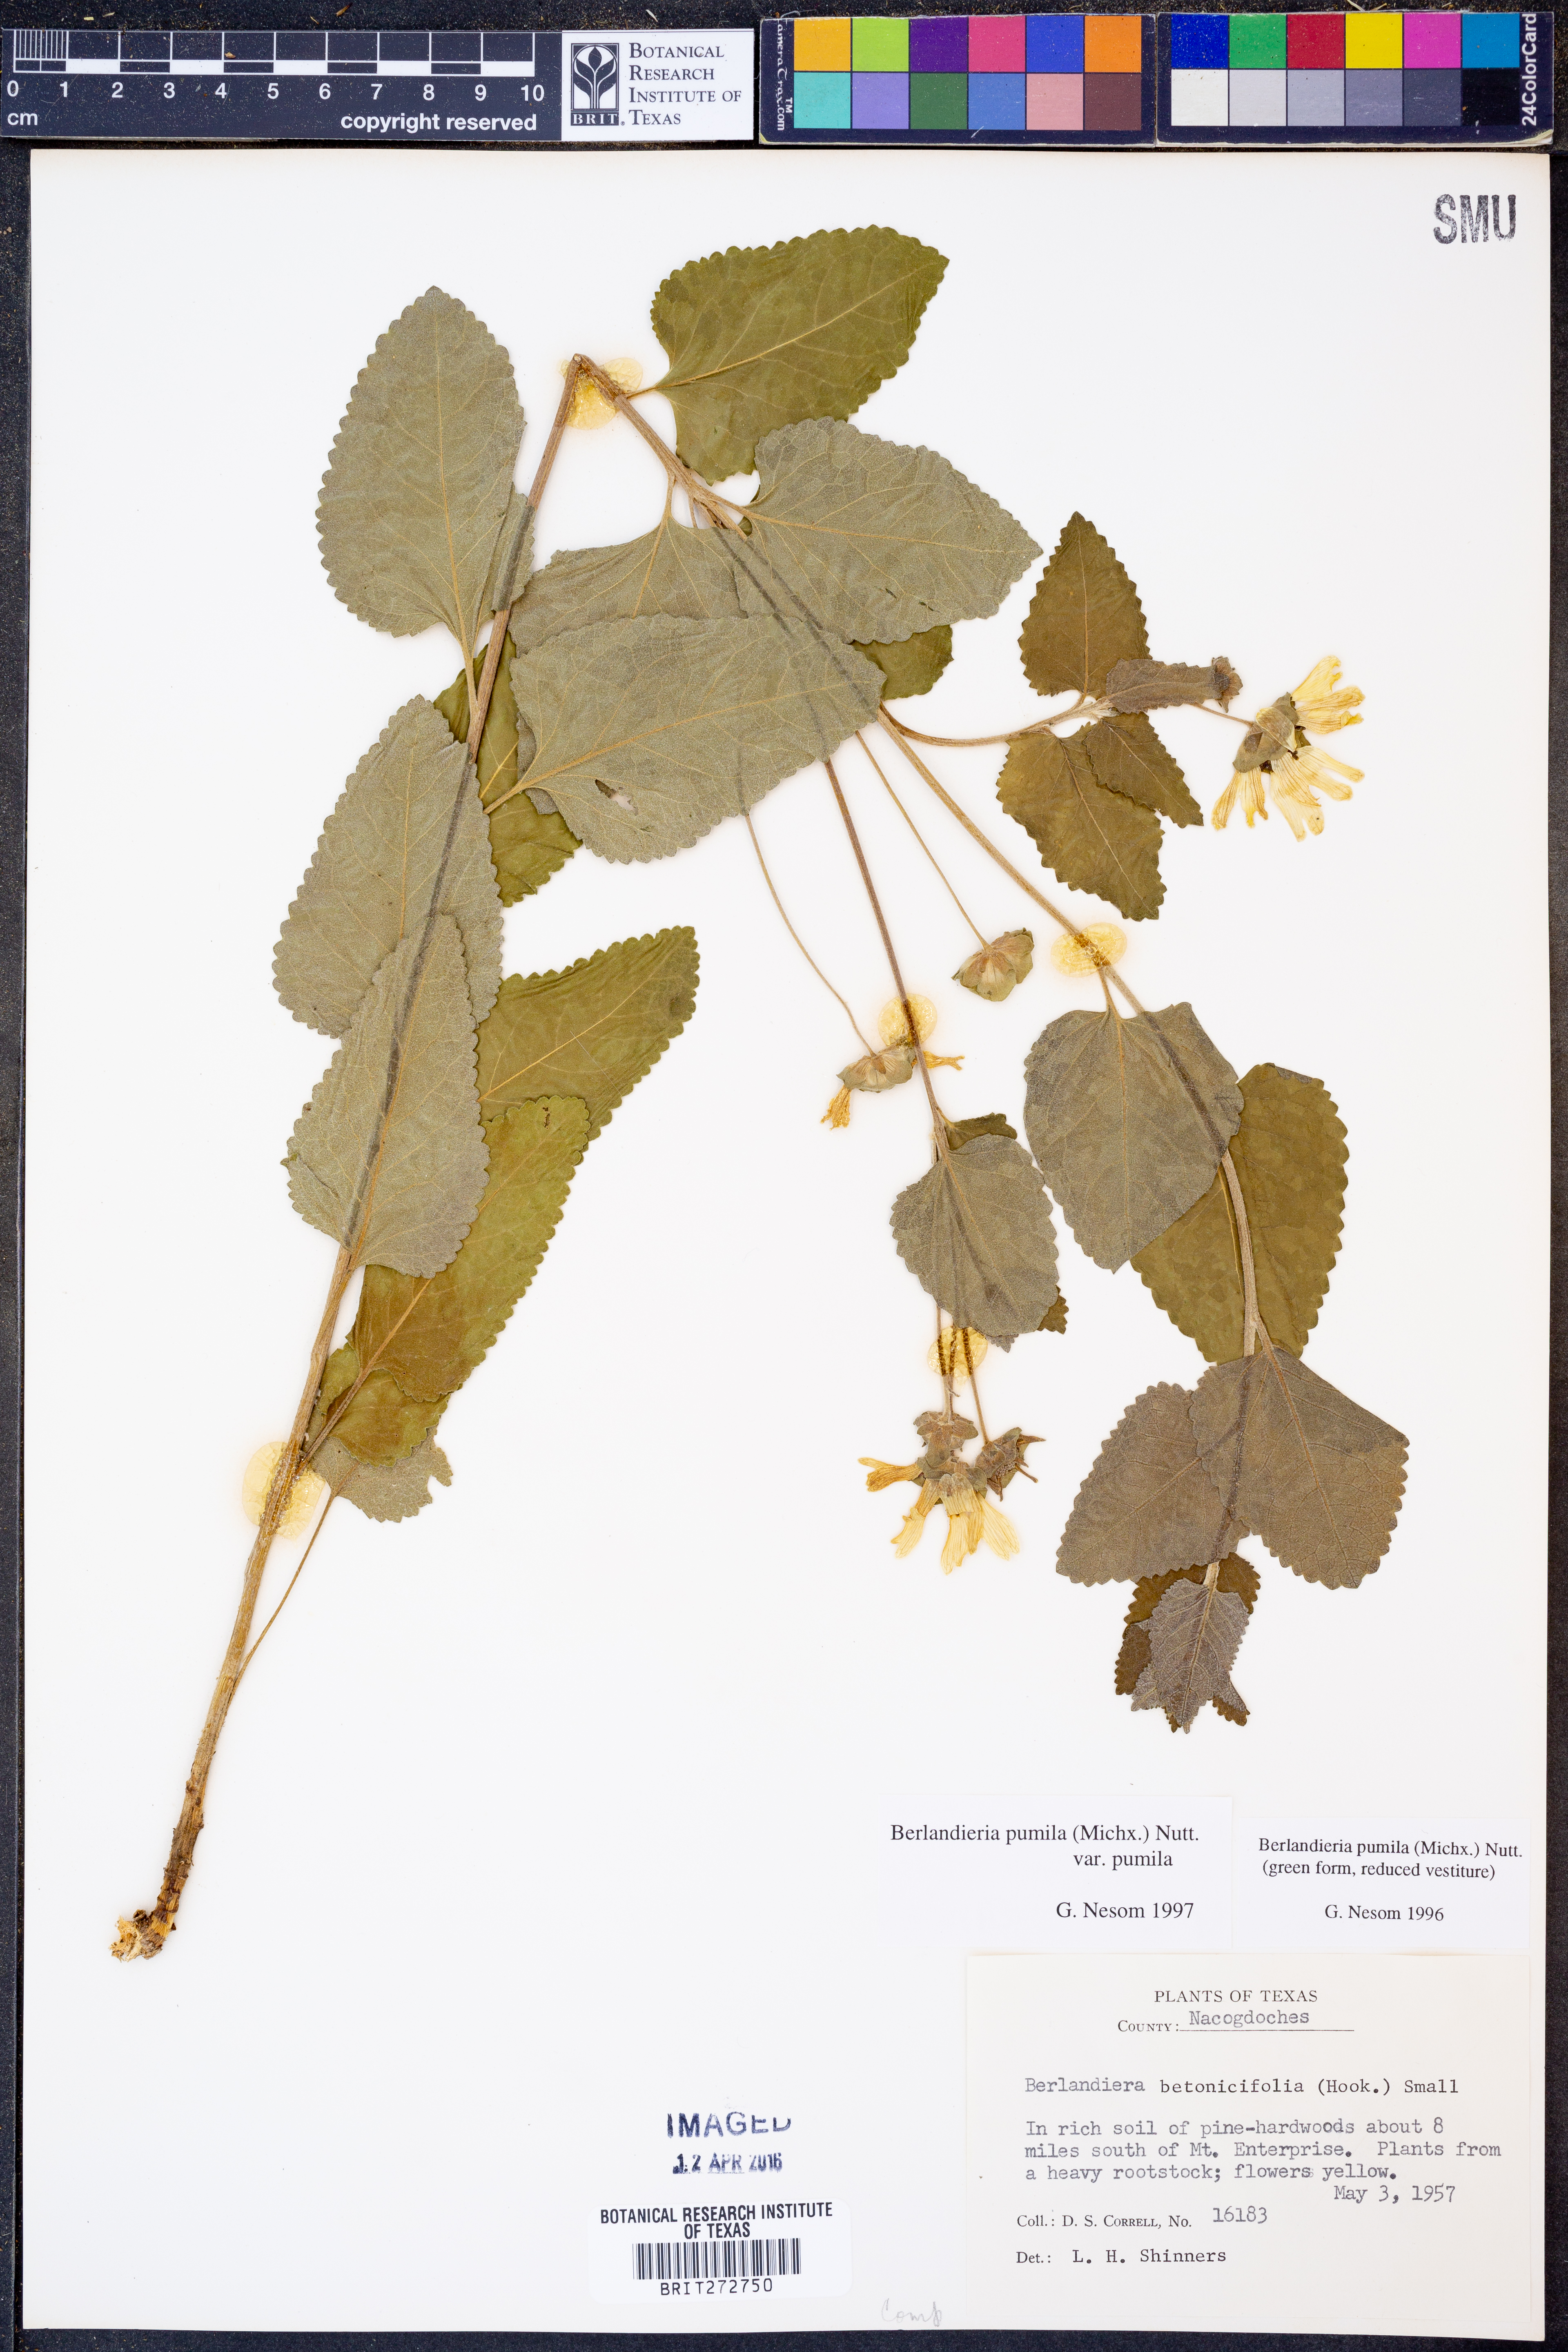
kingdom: Plantae
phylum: Tracheophyta
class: Magnoliopsida
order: Asterales
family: Asteraceae
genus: Berlandiera
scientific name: Berlandiera pumila
